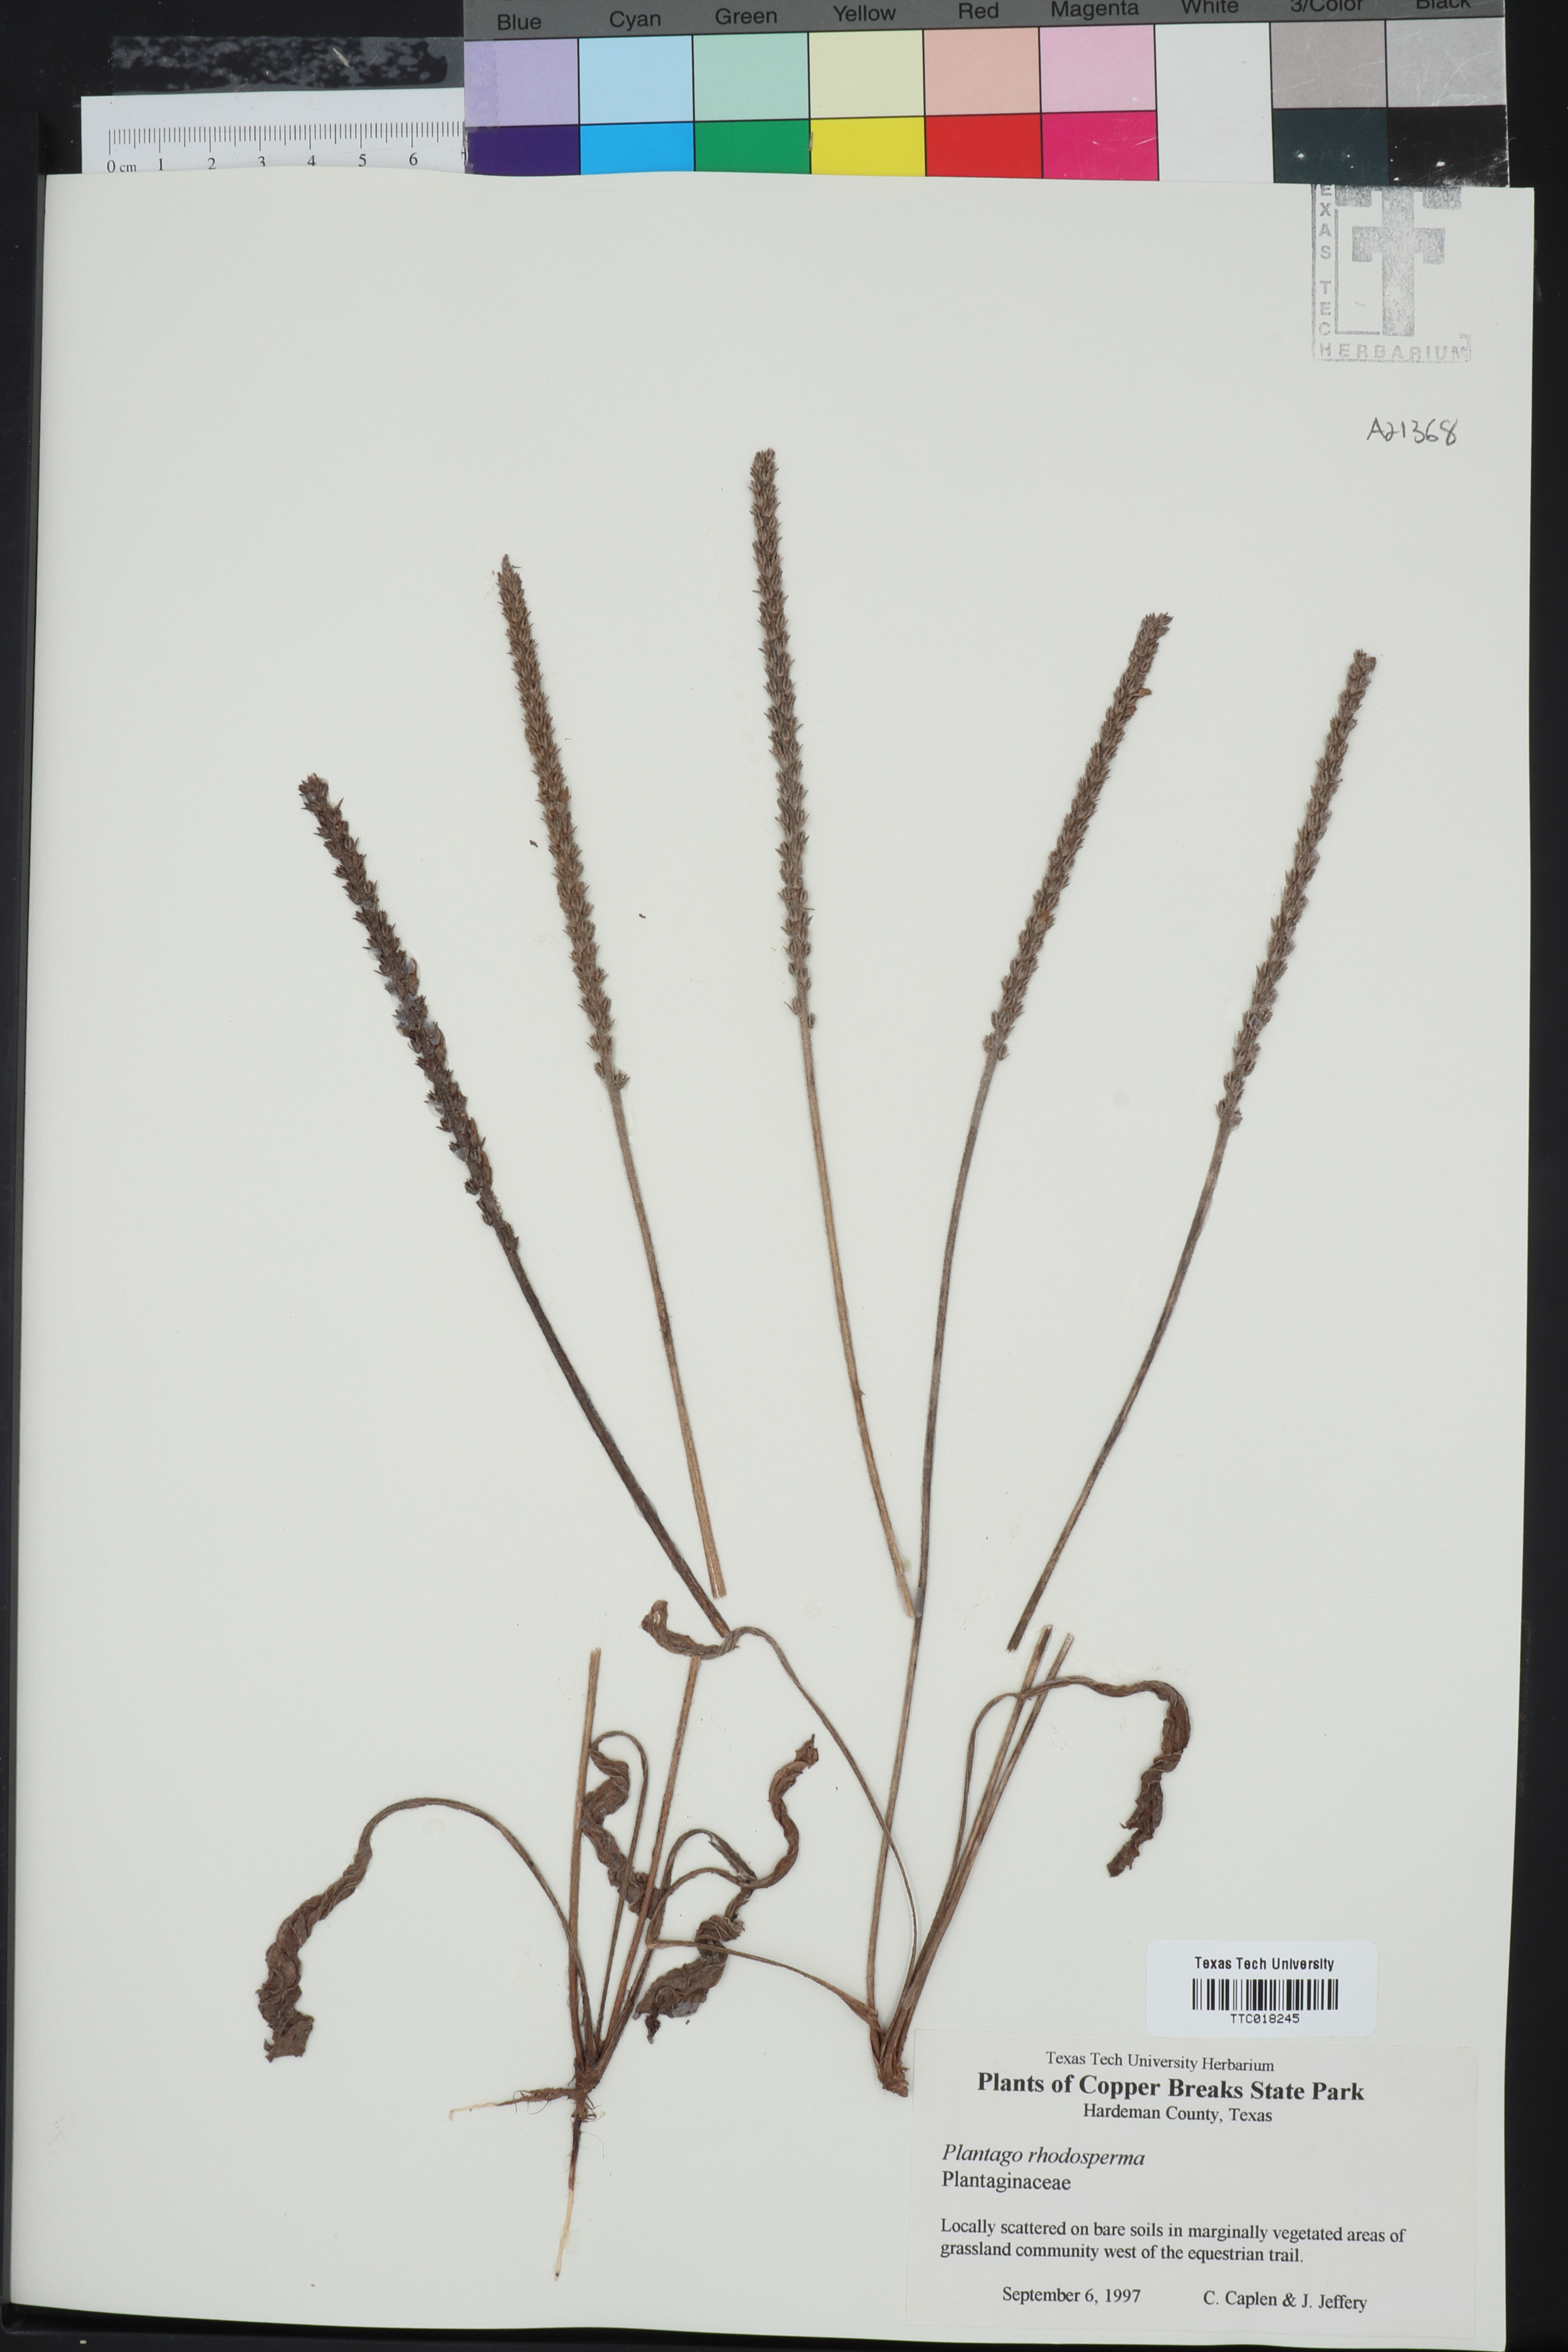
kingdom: Plantae
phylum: Tracheophyta
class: Magnoliopsida
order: Lamiales
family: Plantaginaceae
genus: Plantago
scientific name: Plantago rhodosperma
